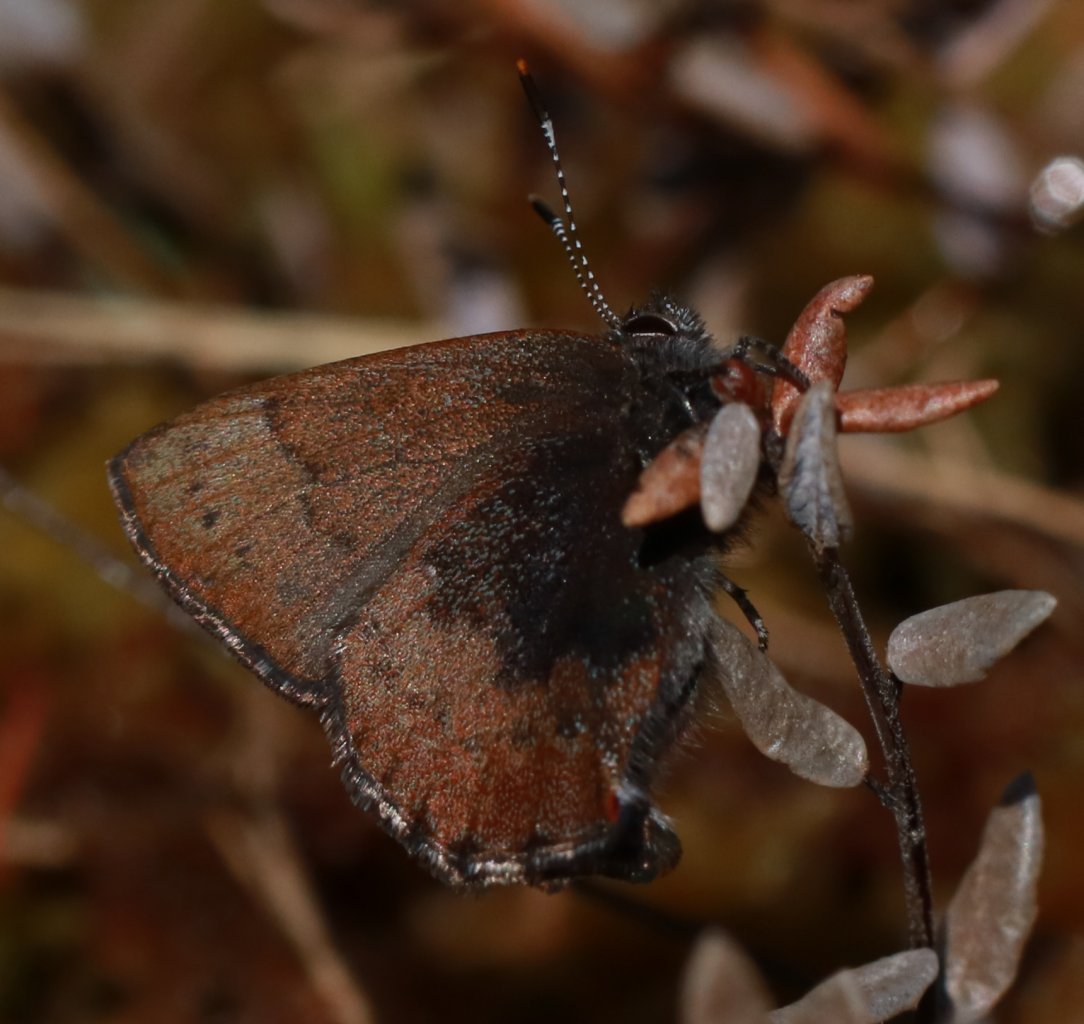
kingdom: Animalia
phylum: Arthropoda
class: Insecta
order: Lepidoptera
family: Lycaenidae
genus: Incisalia
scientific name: Incisalia irioides
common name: Brown Elfin
